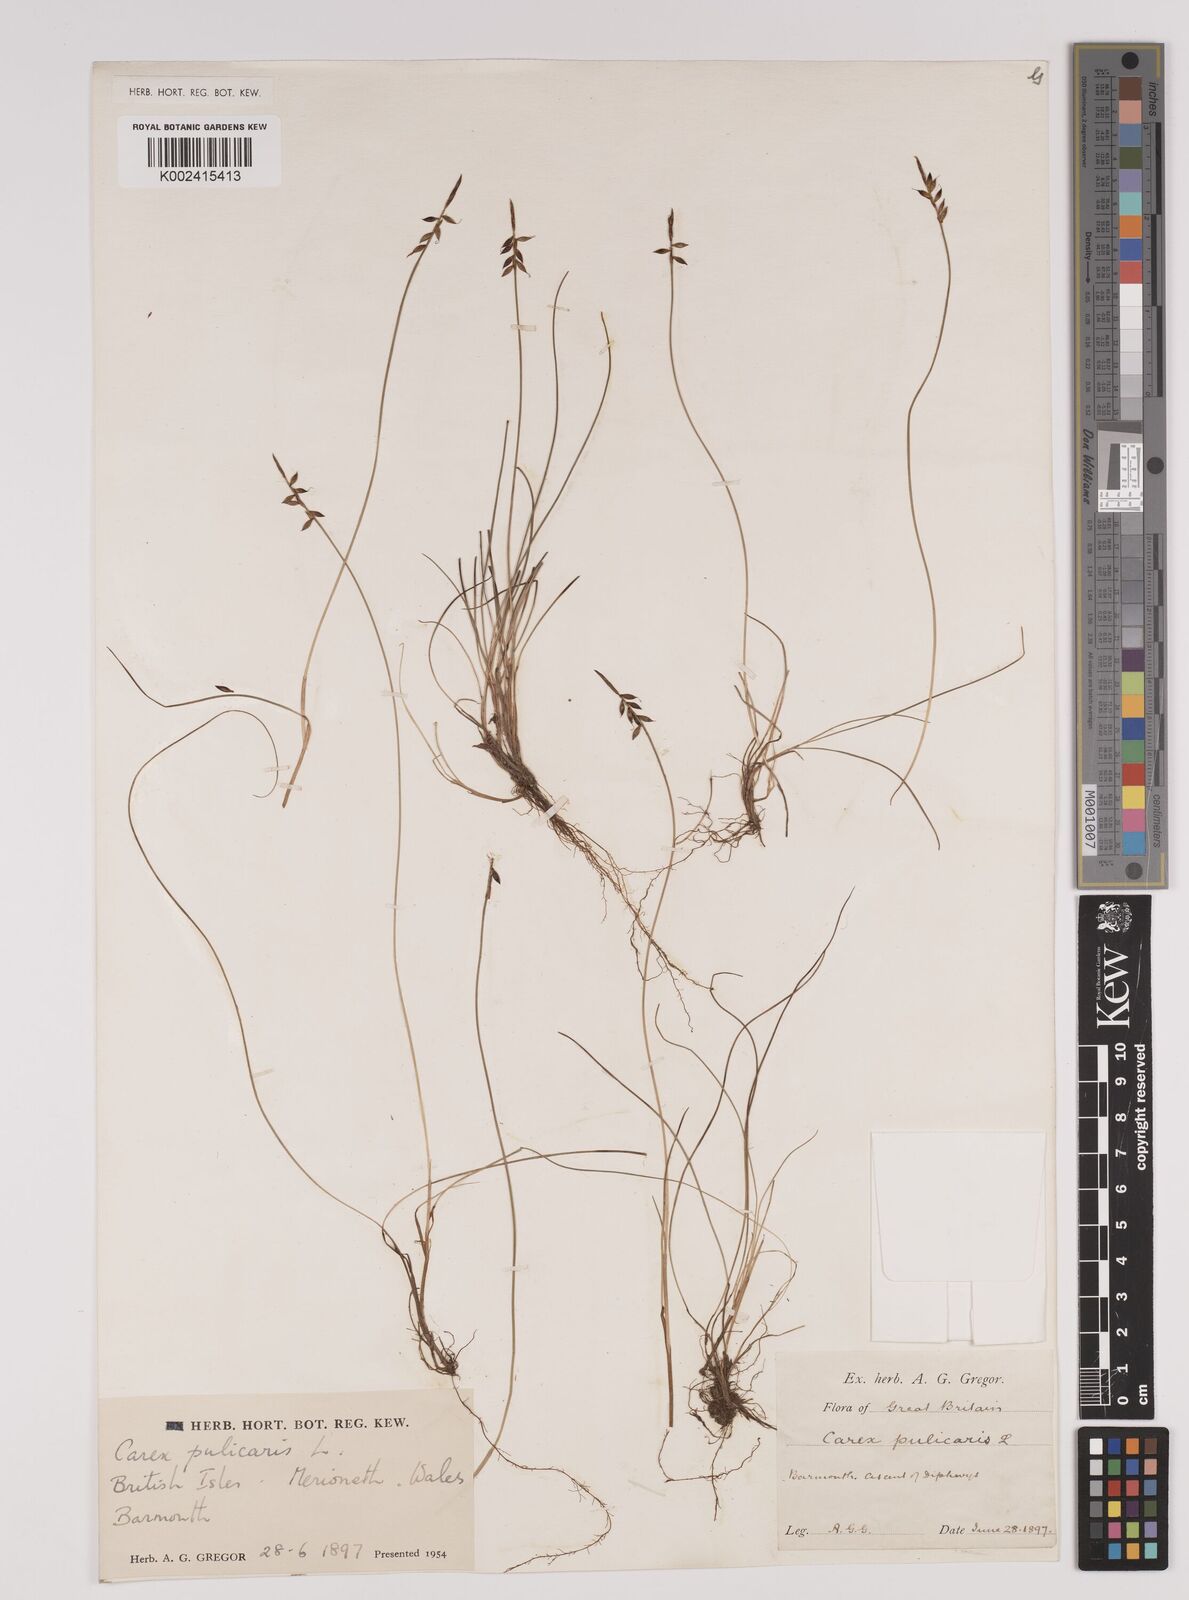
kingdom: Plantae
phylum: Tracheophyta
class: Liliopsida
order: Poales
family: Cyperaceae
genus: Carex
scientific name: Carex pulicaris
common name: Flea sedge
